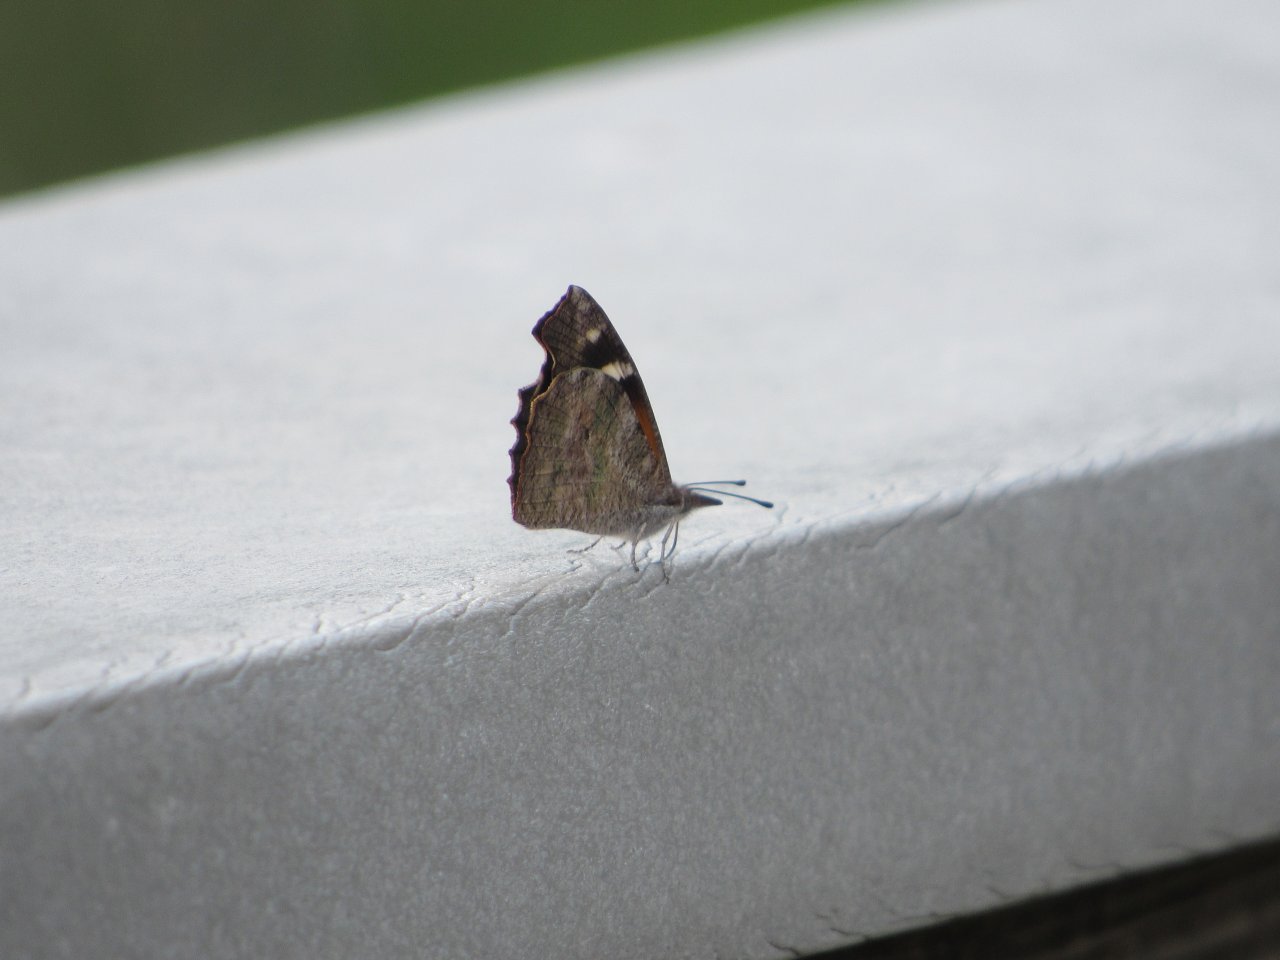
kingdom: Animalia
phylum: Arthropoda
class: Insecta
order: Lepidoptera
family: Nymphalidae
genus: Libytheana
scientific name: Libytheana carinenta
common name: American Snout
